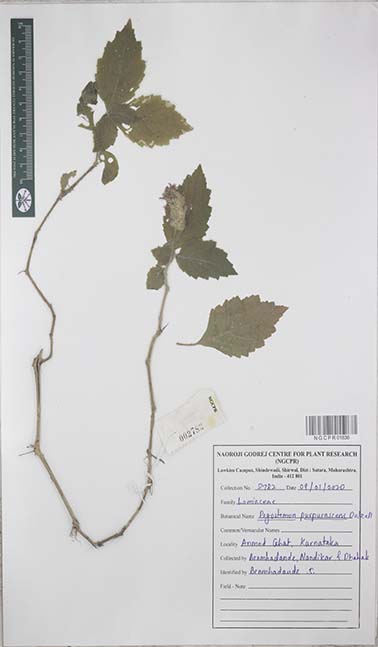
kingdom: Plantae
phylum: Tracheophyta
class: Magnoliopsida
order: Lamiales
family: Lamiaceae
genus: Pogostemon
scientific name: Pogostemon purpurascens
